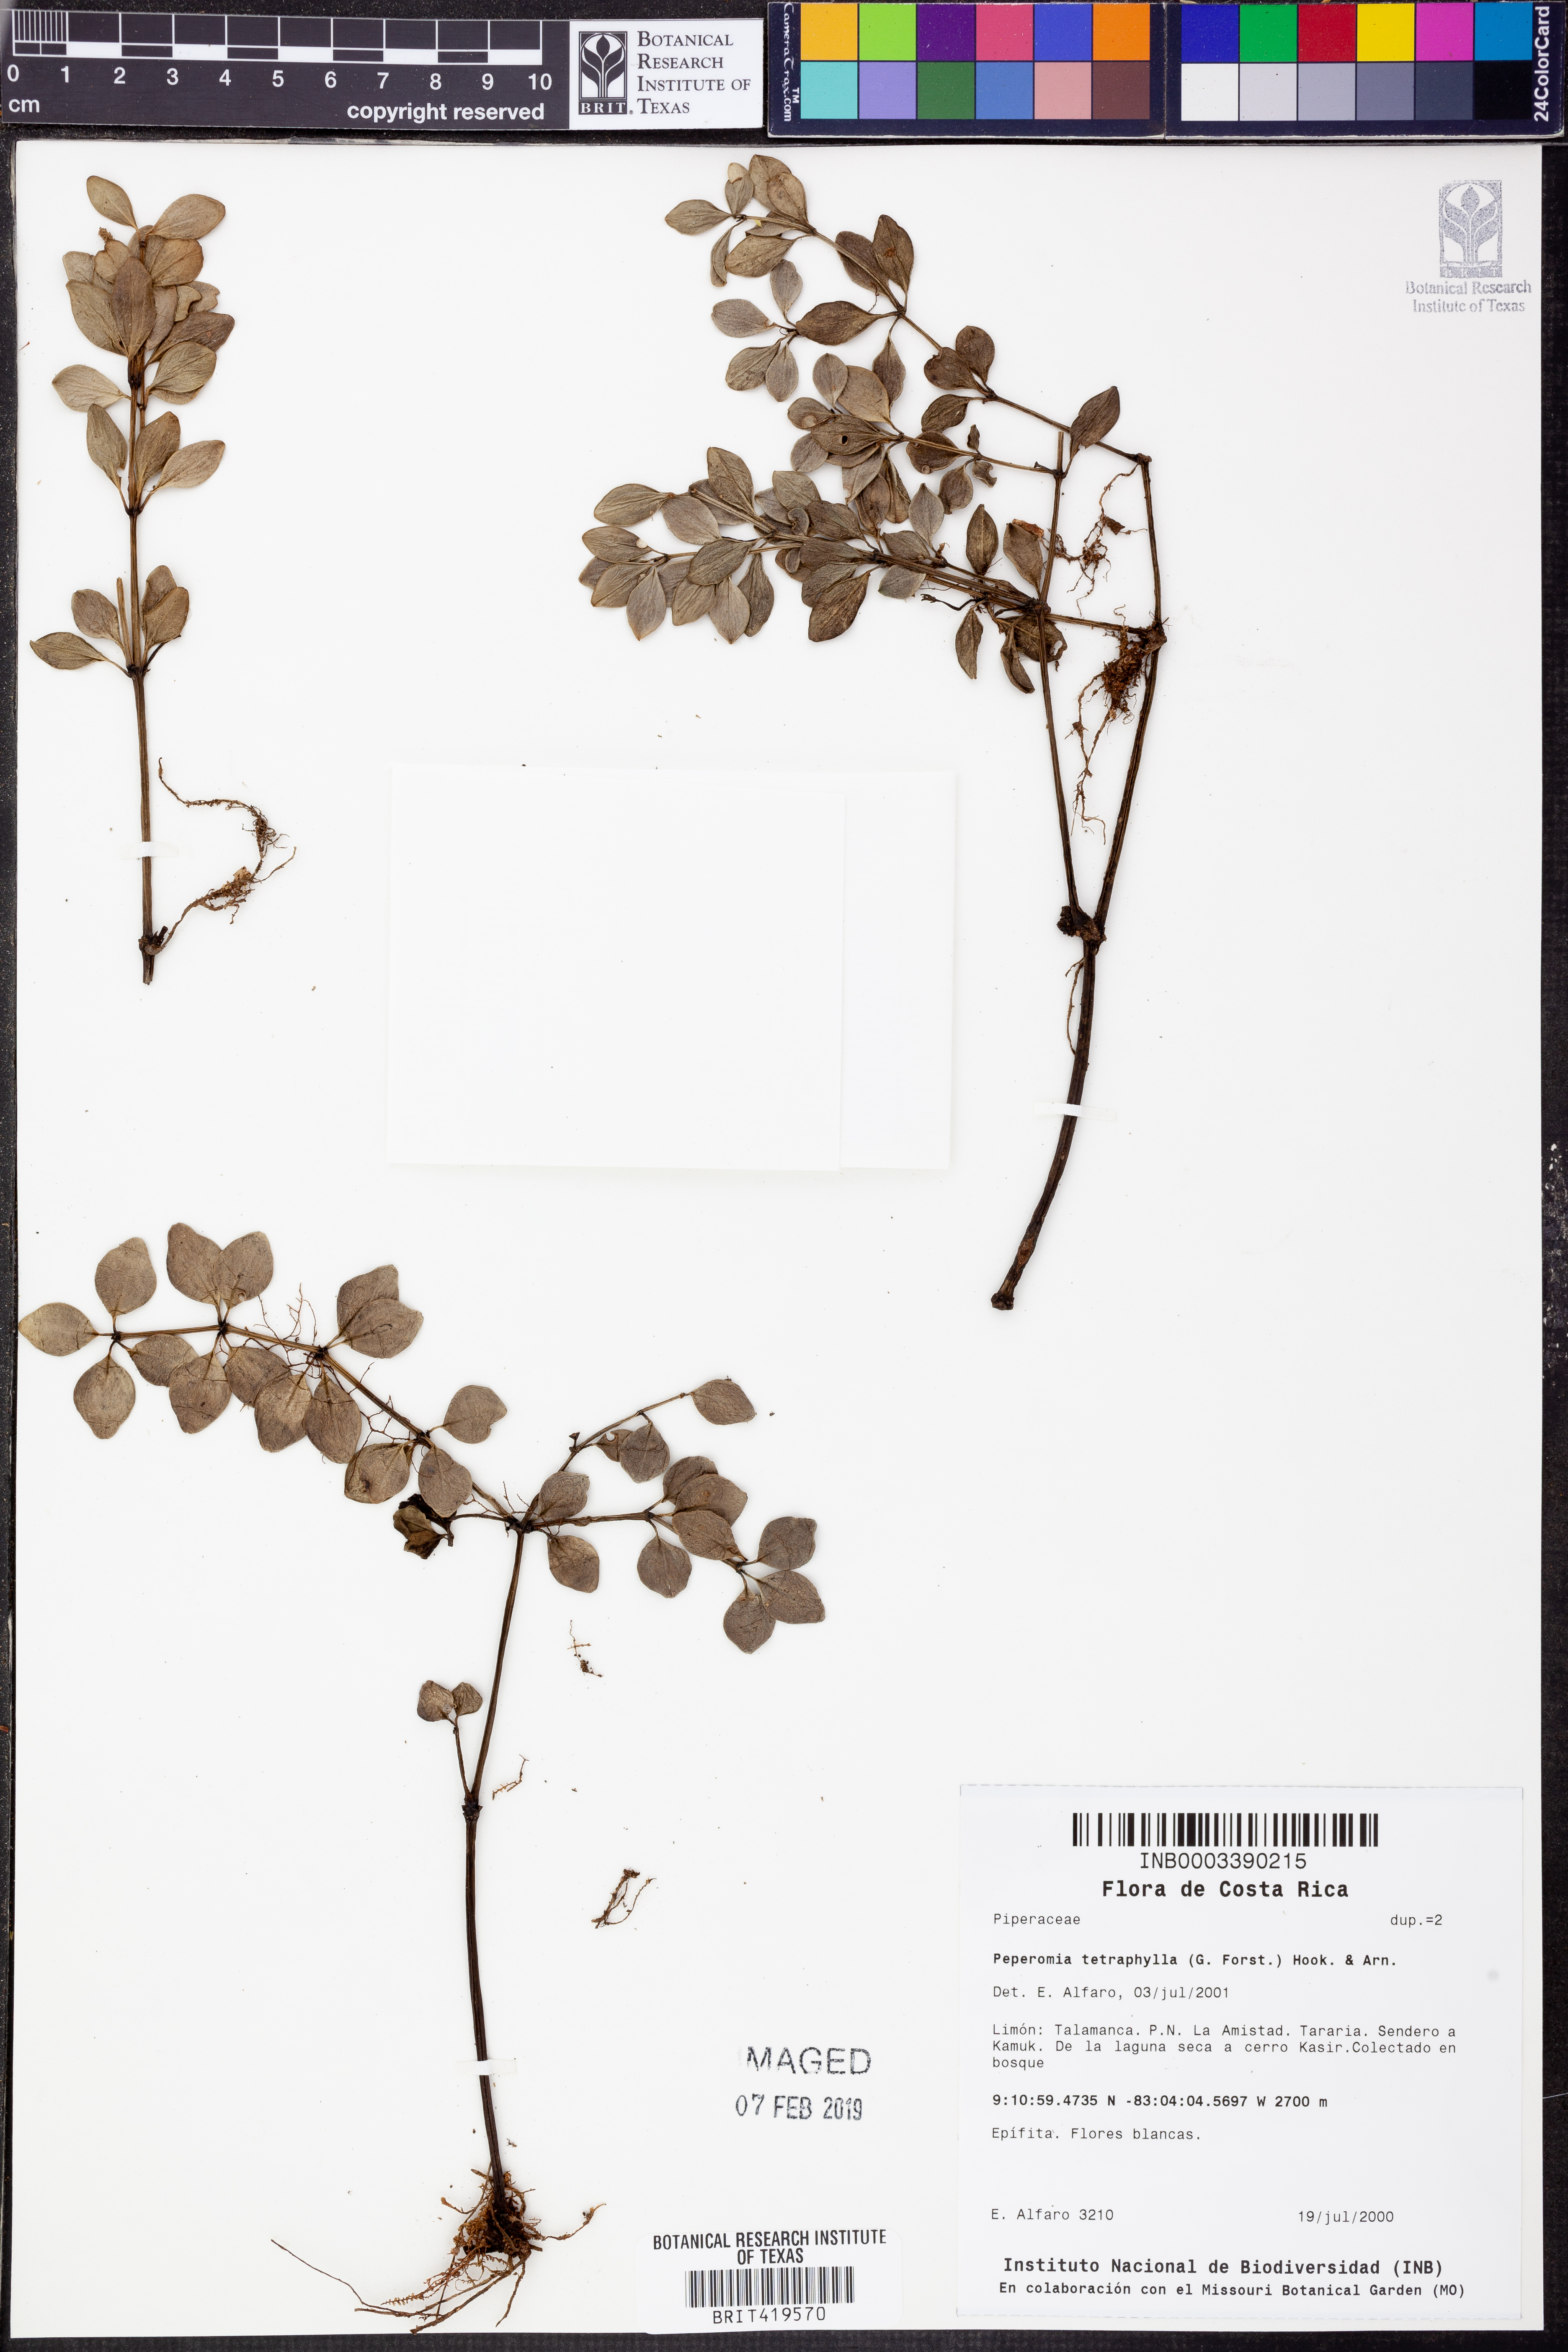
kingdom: Plantae
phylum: Tracheophyta
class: Magnoliopsida
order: Piperales
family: Piperaceae
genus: Peperomia
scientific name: Peperomia tetraphylla
